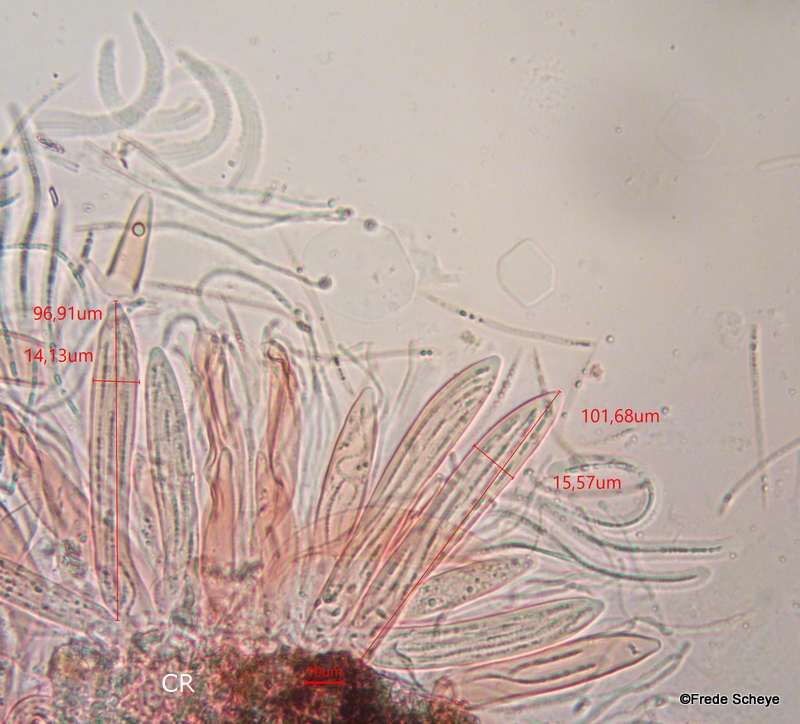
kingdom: Fungi
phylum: Ascomycota
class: Leotiomycetes
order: Rhytismatales
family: Rhytismataceae
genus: Lophodermium
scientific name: Lophodermium juniperinum
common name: ene-fureplet
